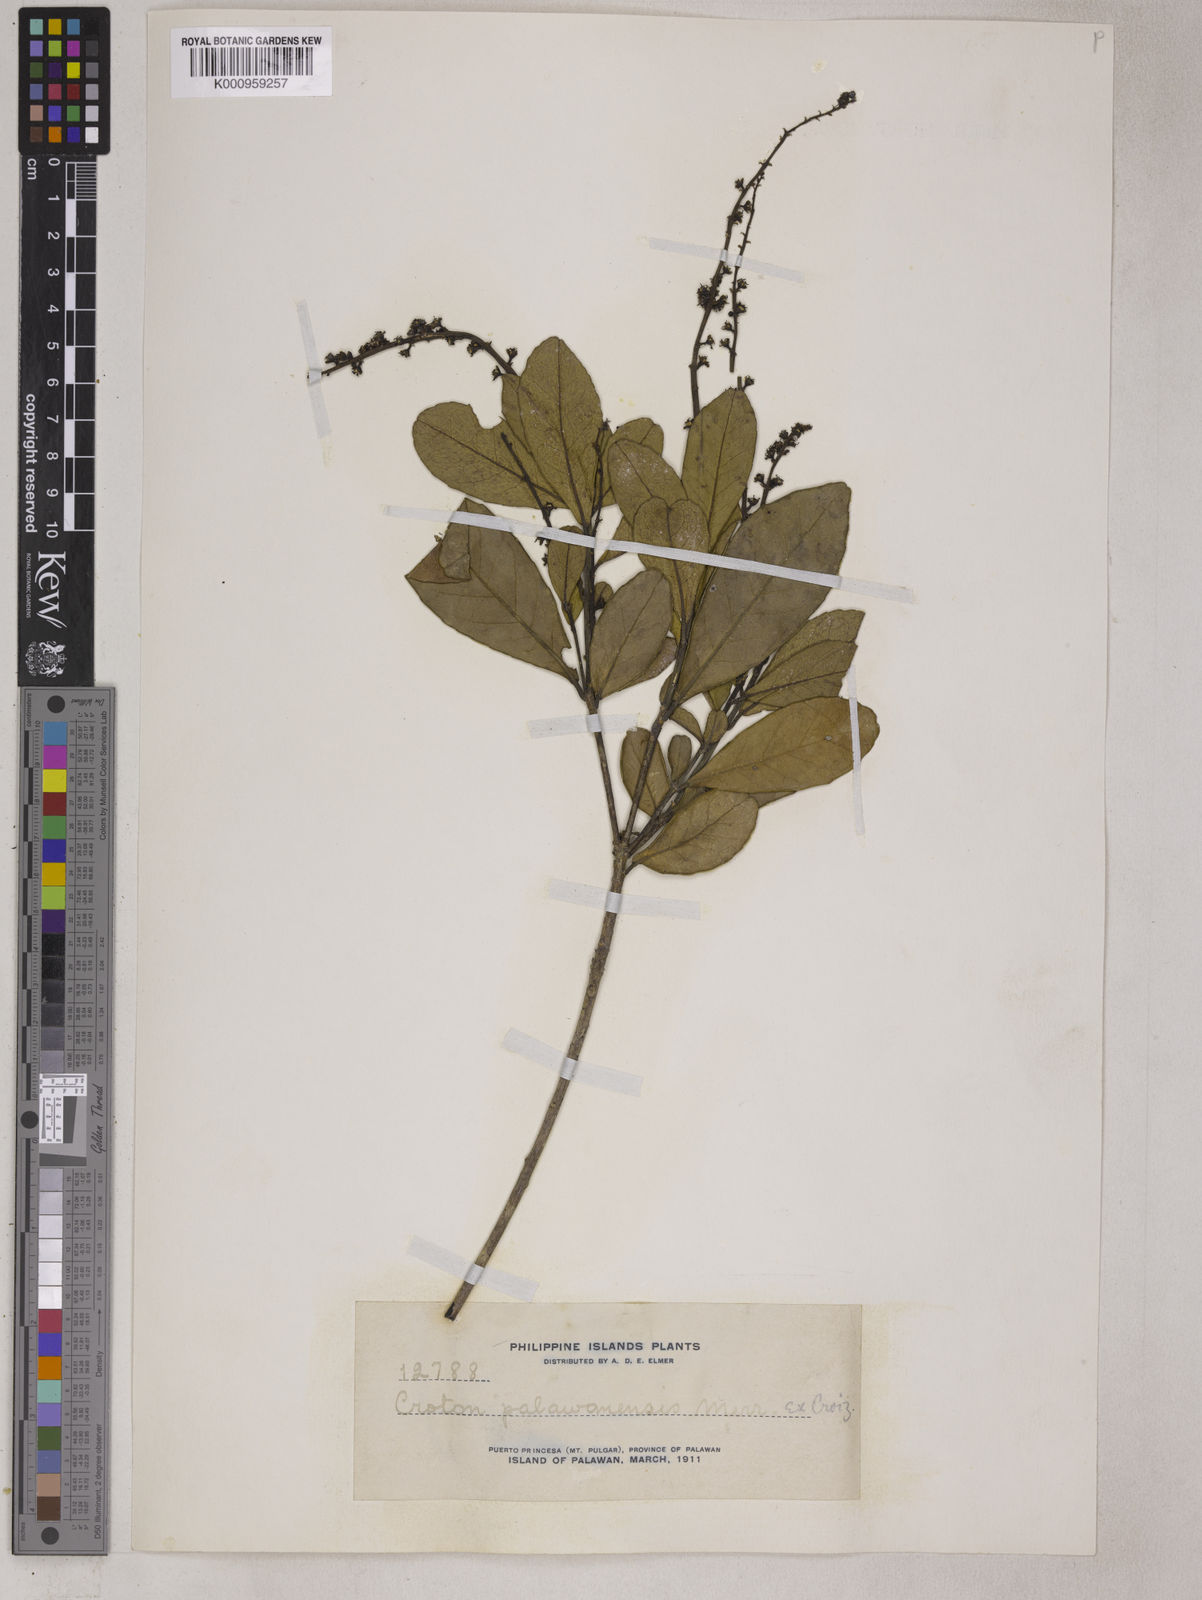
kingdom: Plantae
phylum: Tracheophyta
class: Magnoliopsida
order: Malpighiales
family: Euphorbiaceae
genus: Croton
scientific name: Croton palawanensis
